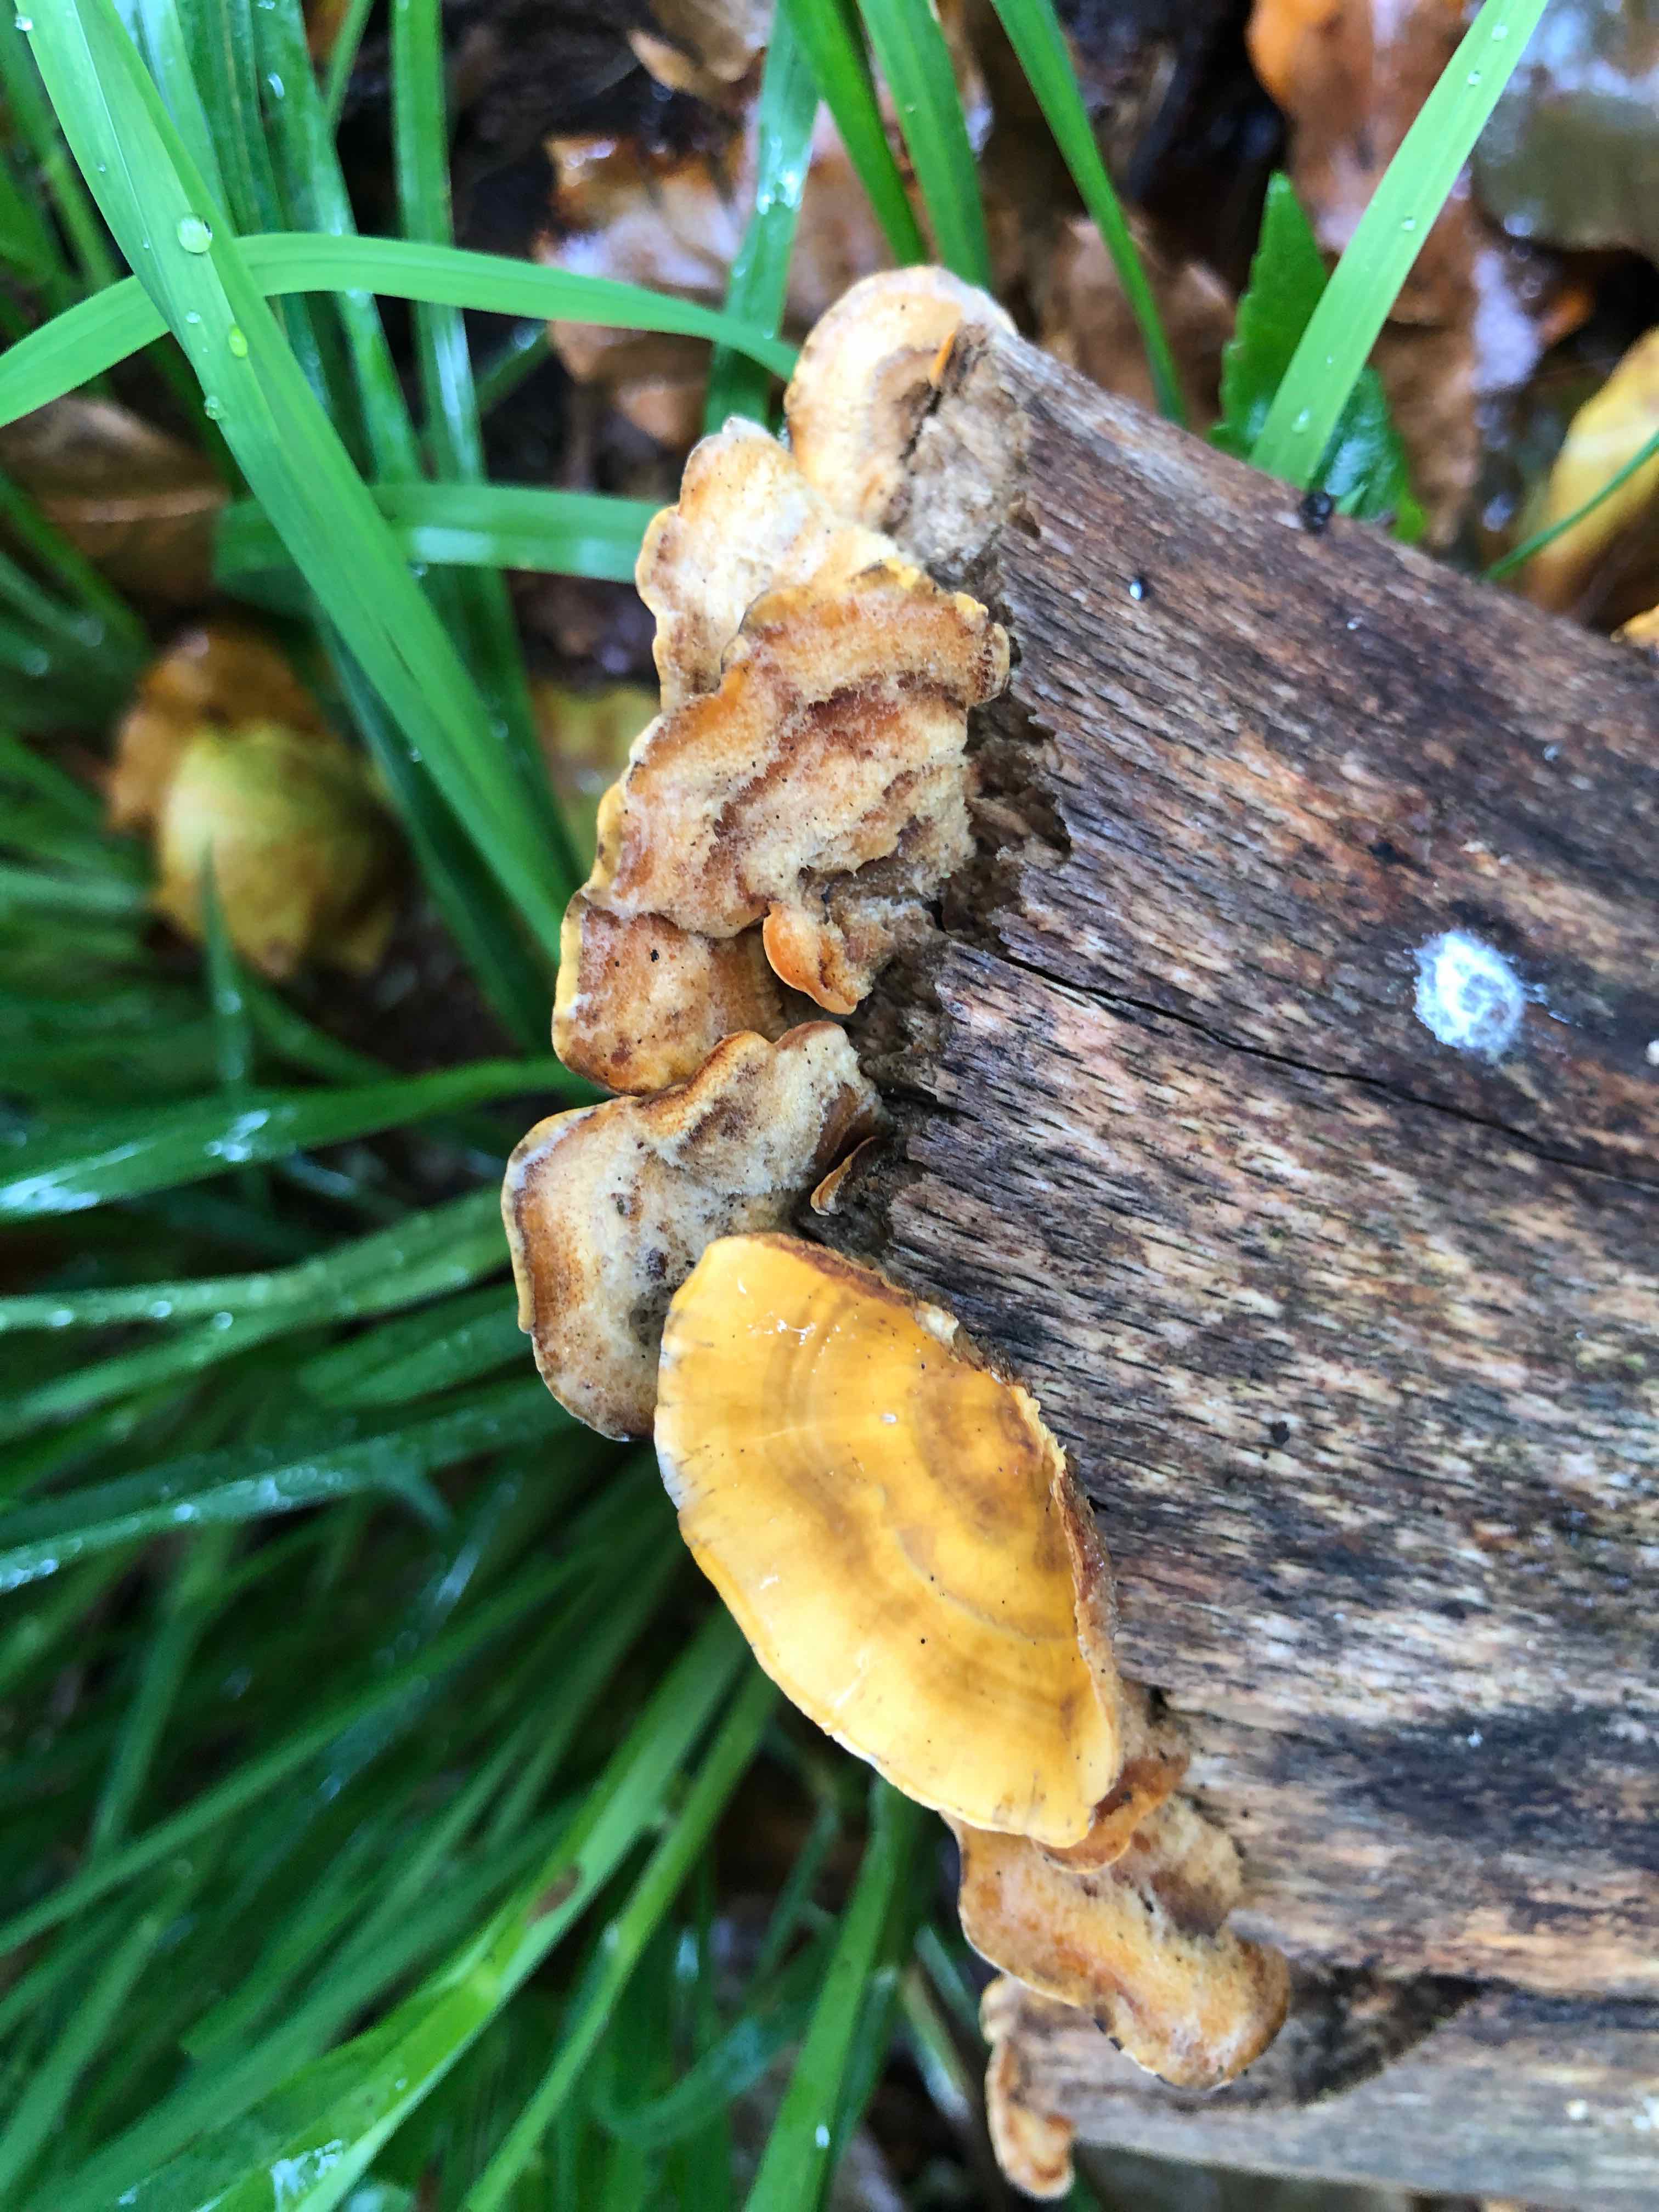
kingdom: Fungi
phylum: Basidiomycota
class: Agaricomycetes
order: Russulales
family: Stereaceae
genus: Stereum
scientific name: Stereum hirsutum
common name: håret lædersvamp
